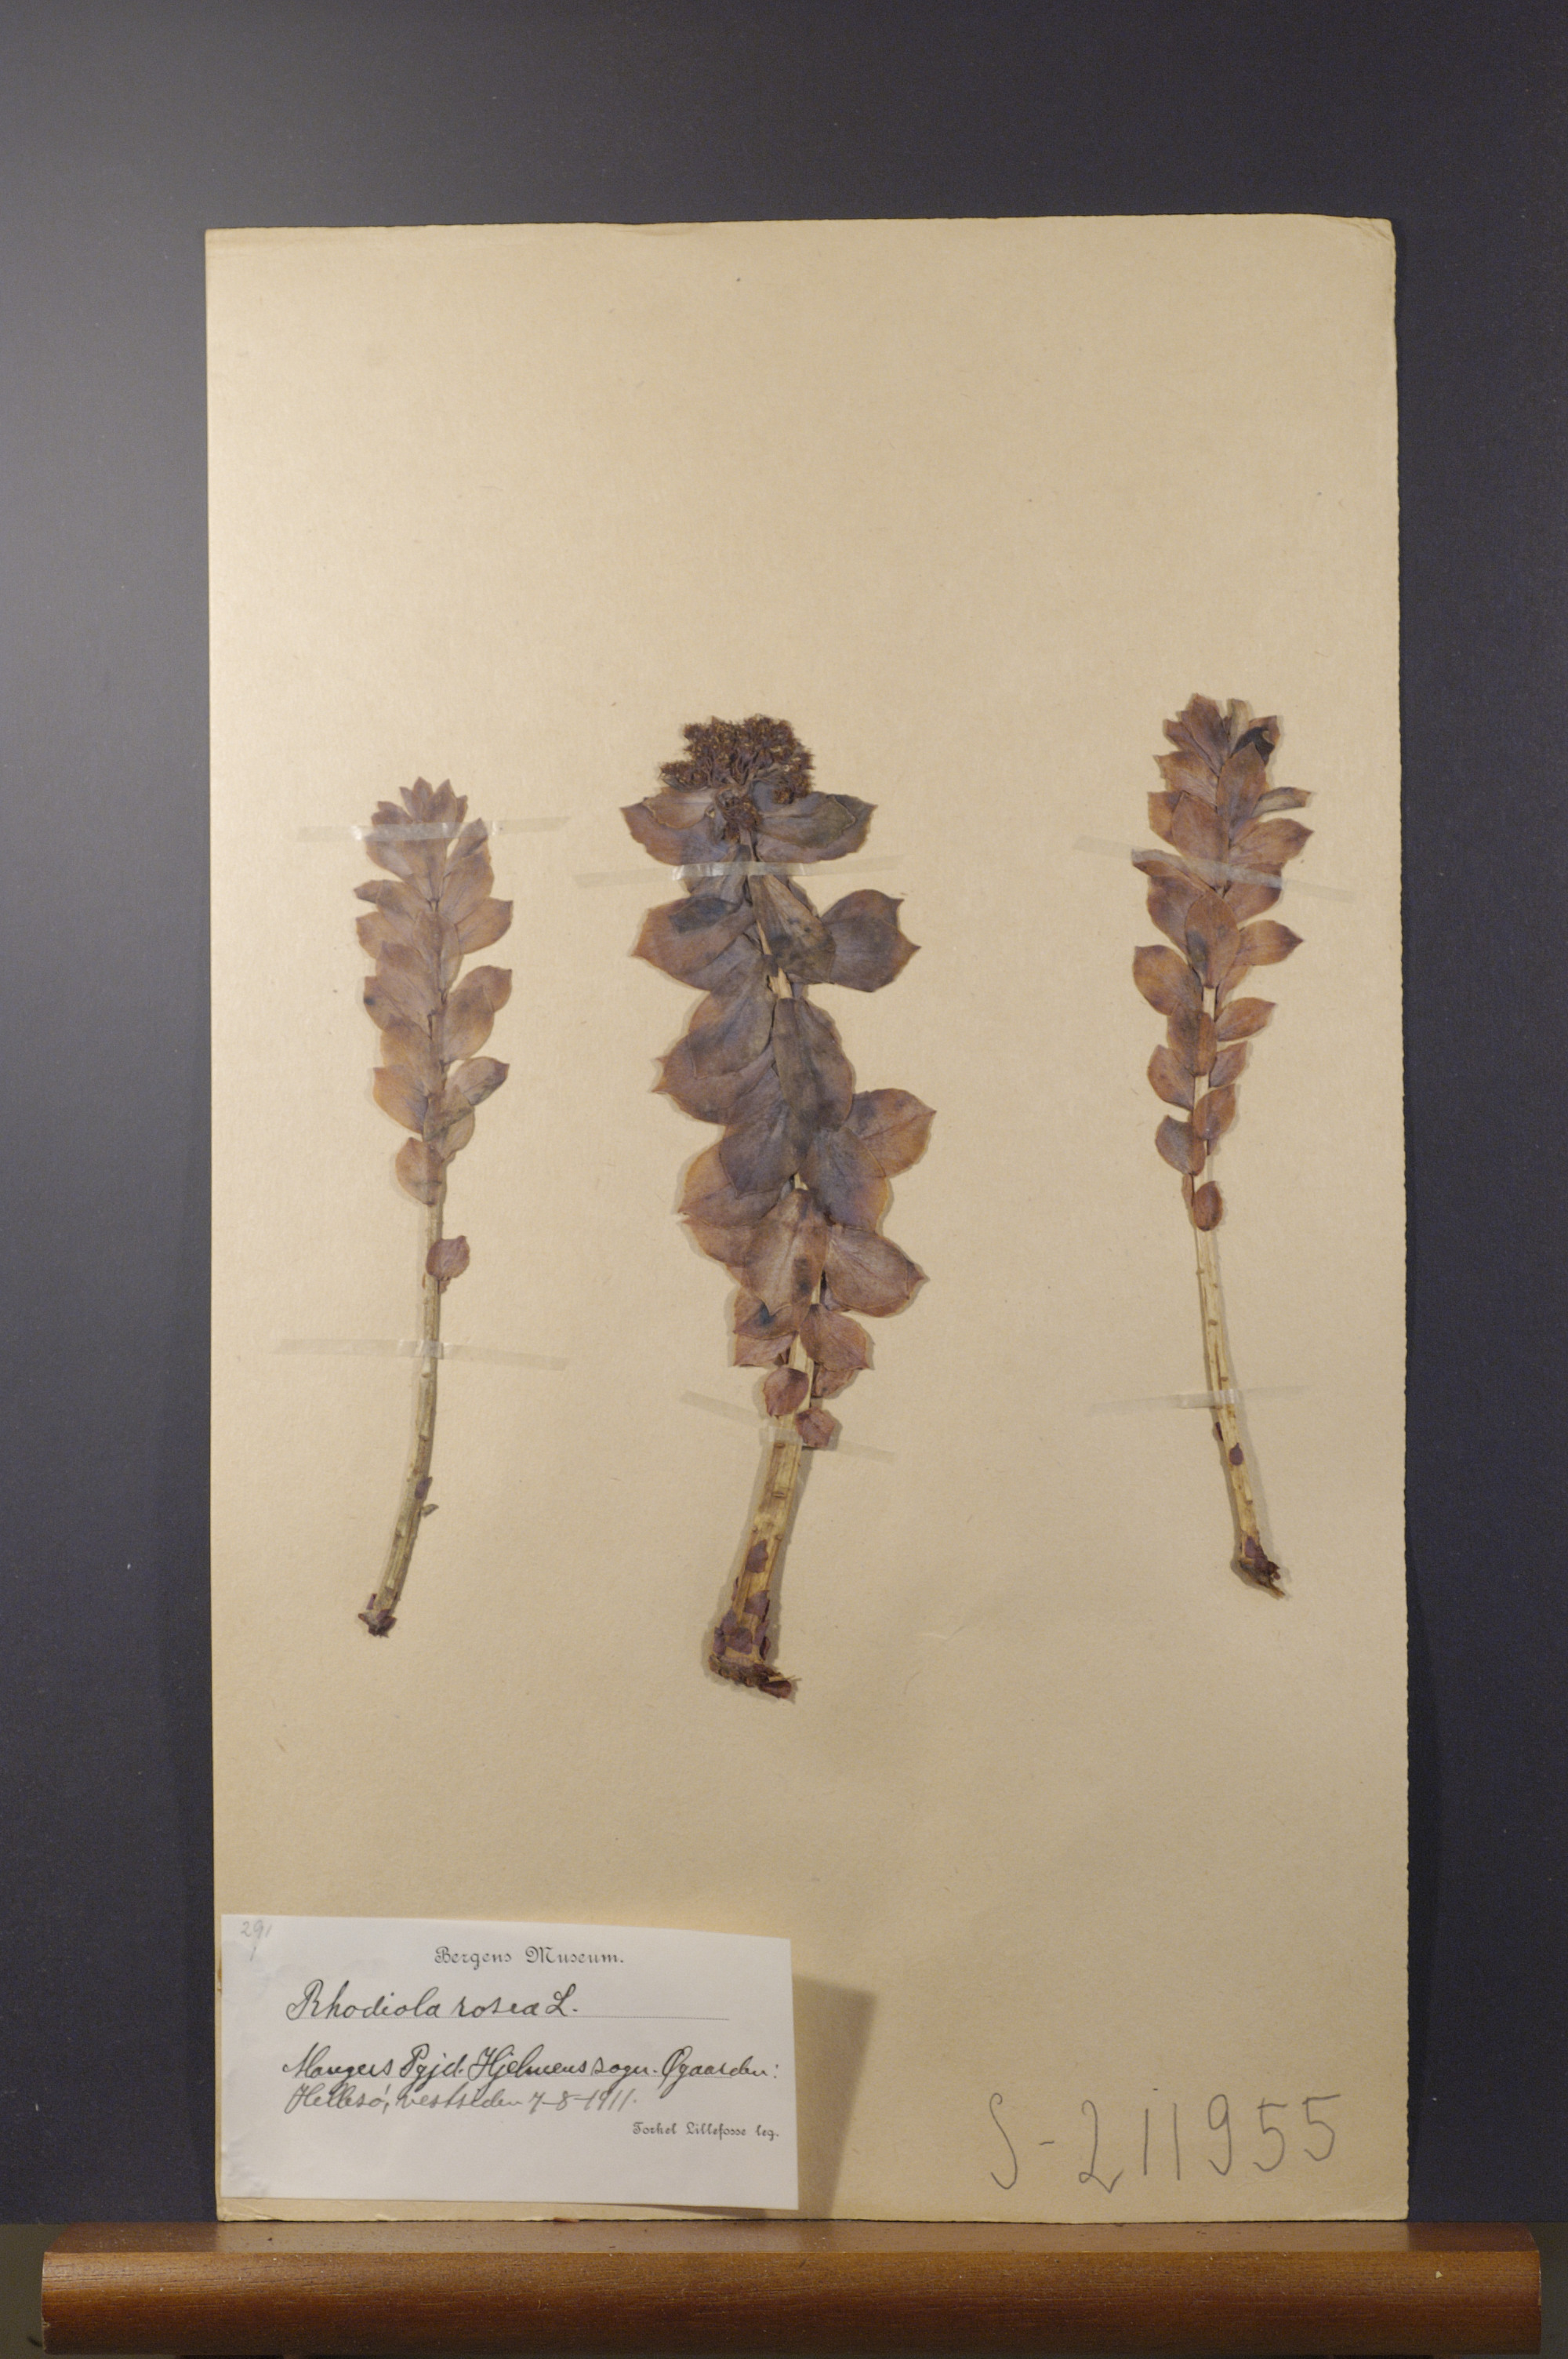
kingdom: Plantae
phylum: Tracheophyta
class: Magnoliopsida
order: Saxifragales
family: Crassulaceae
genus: Rhodiola
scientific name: Rhodiola rosea
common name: Roseroot
